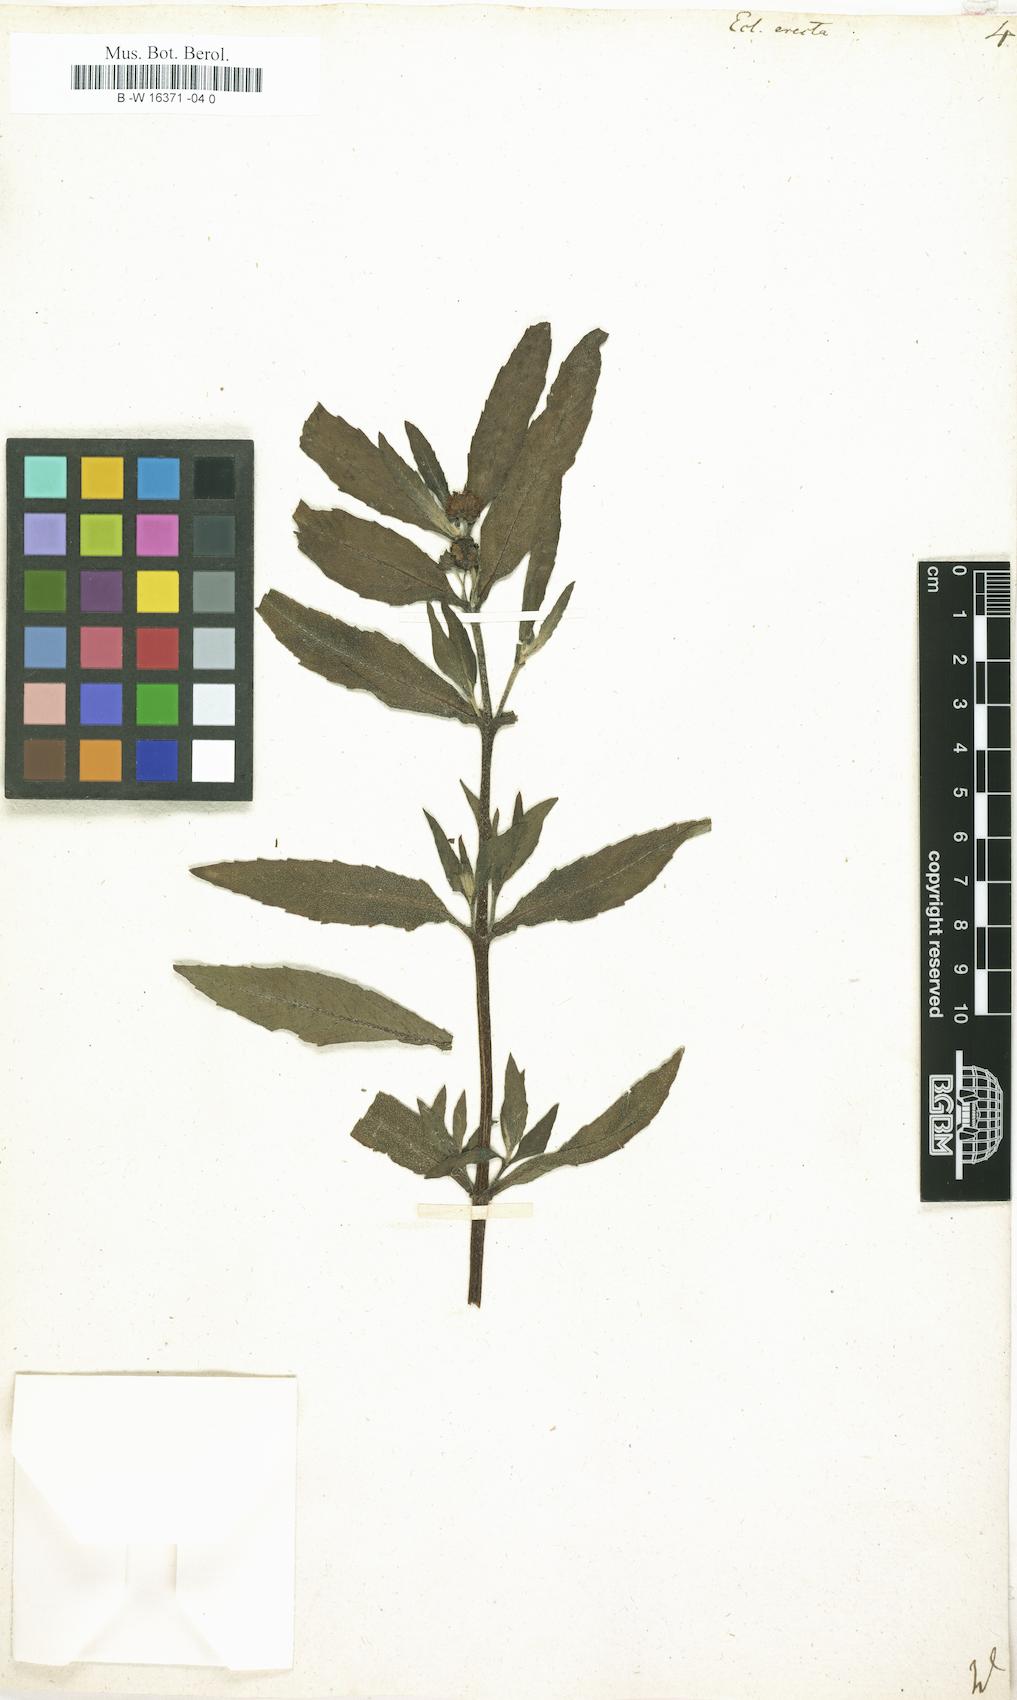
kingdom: Plantae
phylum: Tracheophyta
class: Magnoliopsida
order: Asterales
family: Asteraceae
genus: Eclipta
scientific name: Eclipta alba
